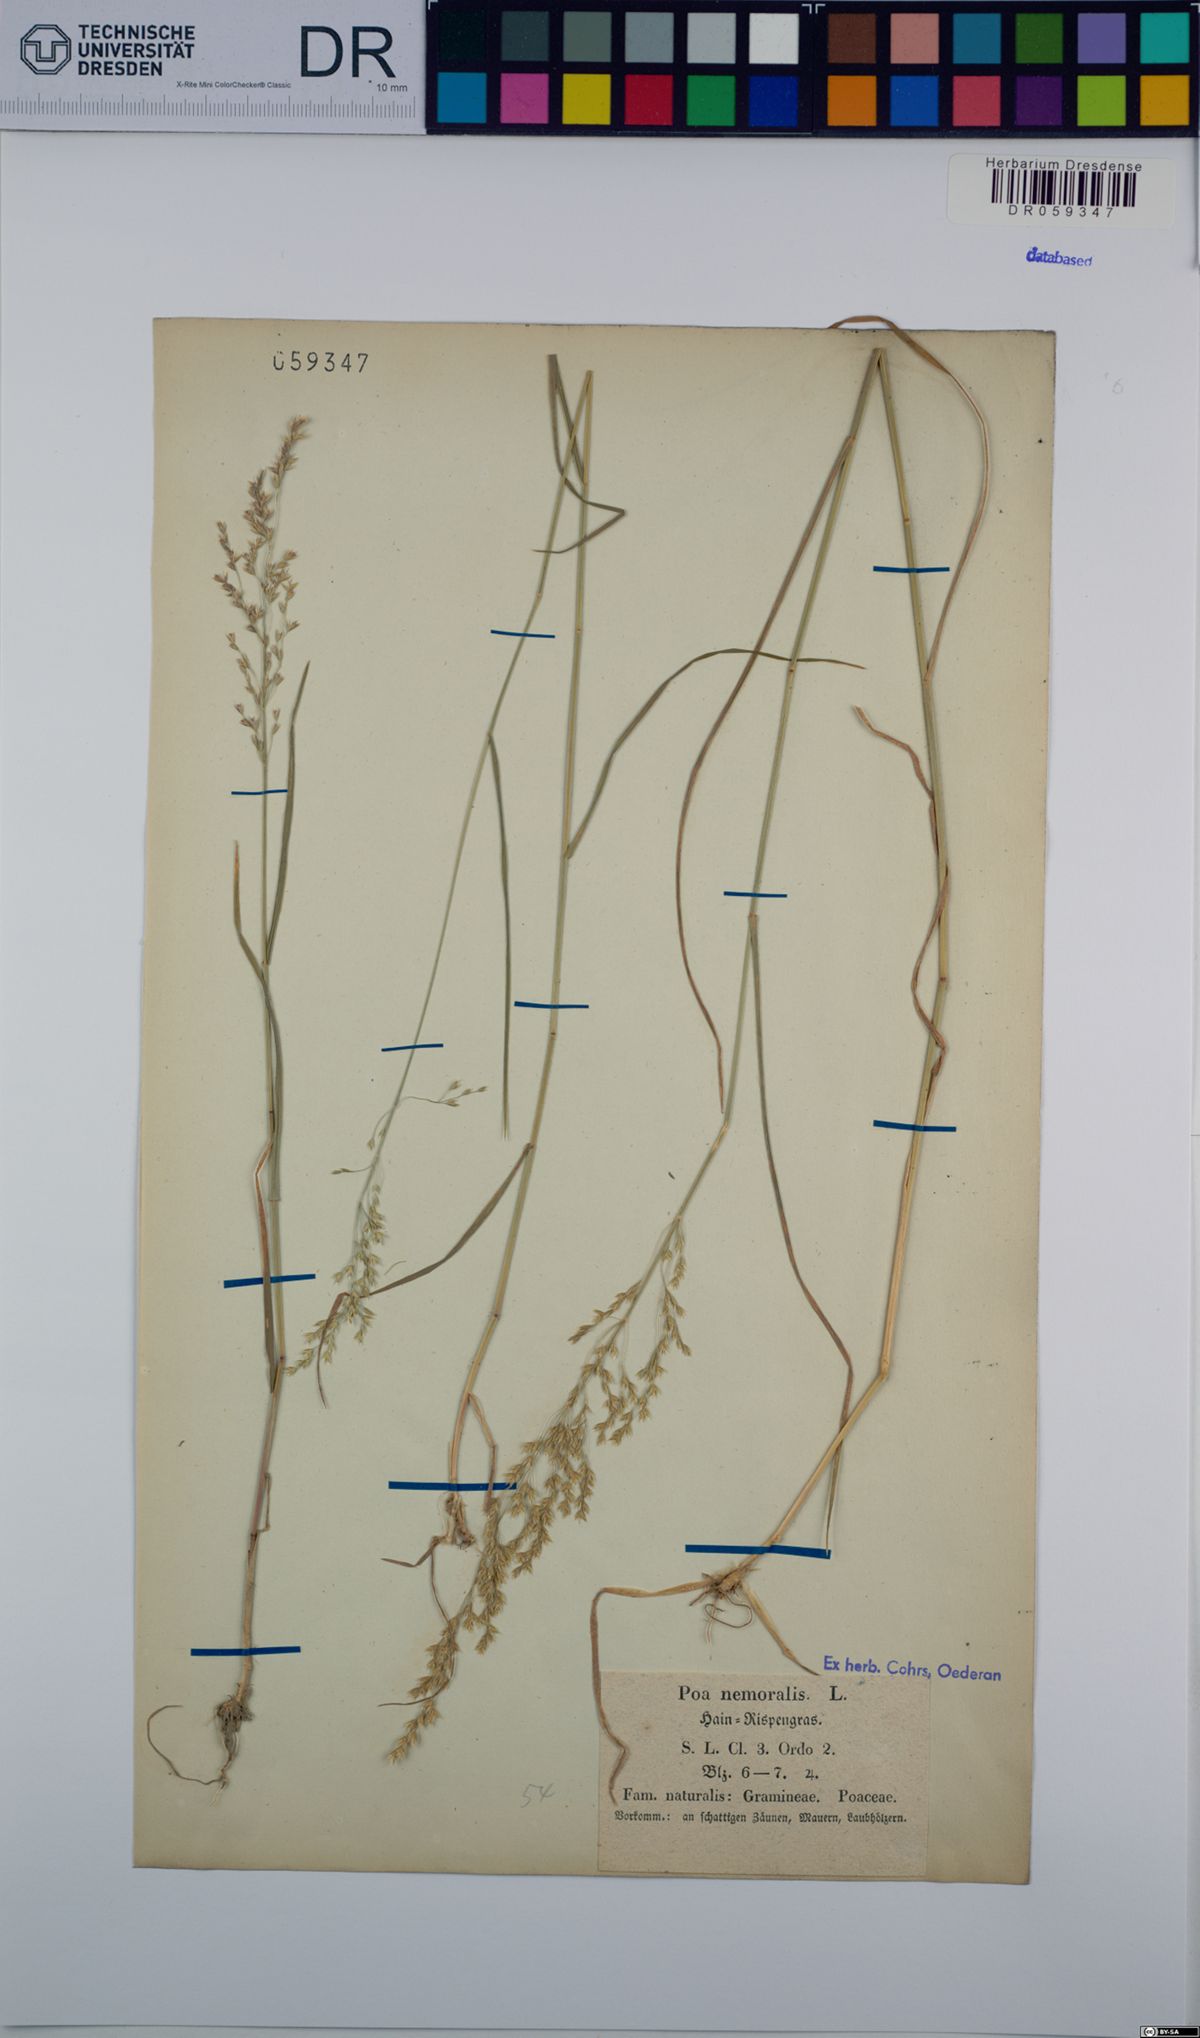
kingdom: Plantae
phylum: Tracheophyta
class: Liliopsida
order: Poales
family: Poaceae
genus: Poa
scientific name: Poa nemoralis
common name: Wood bluegrass
